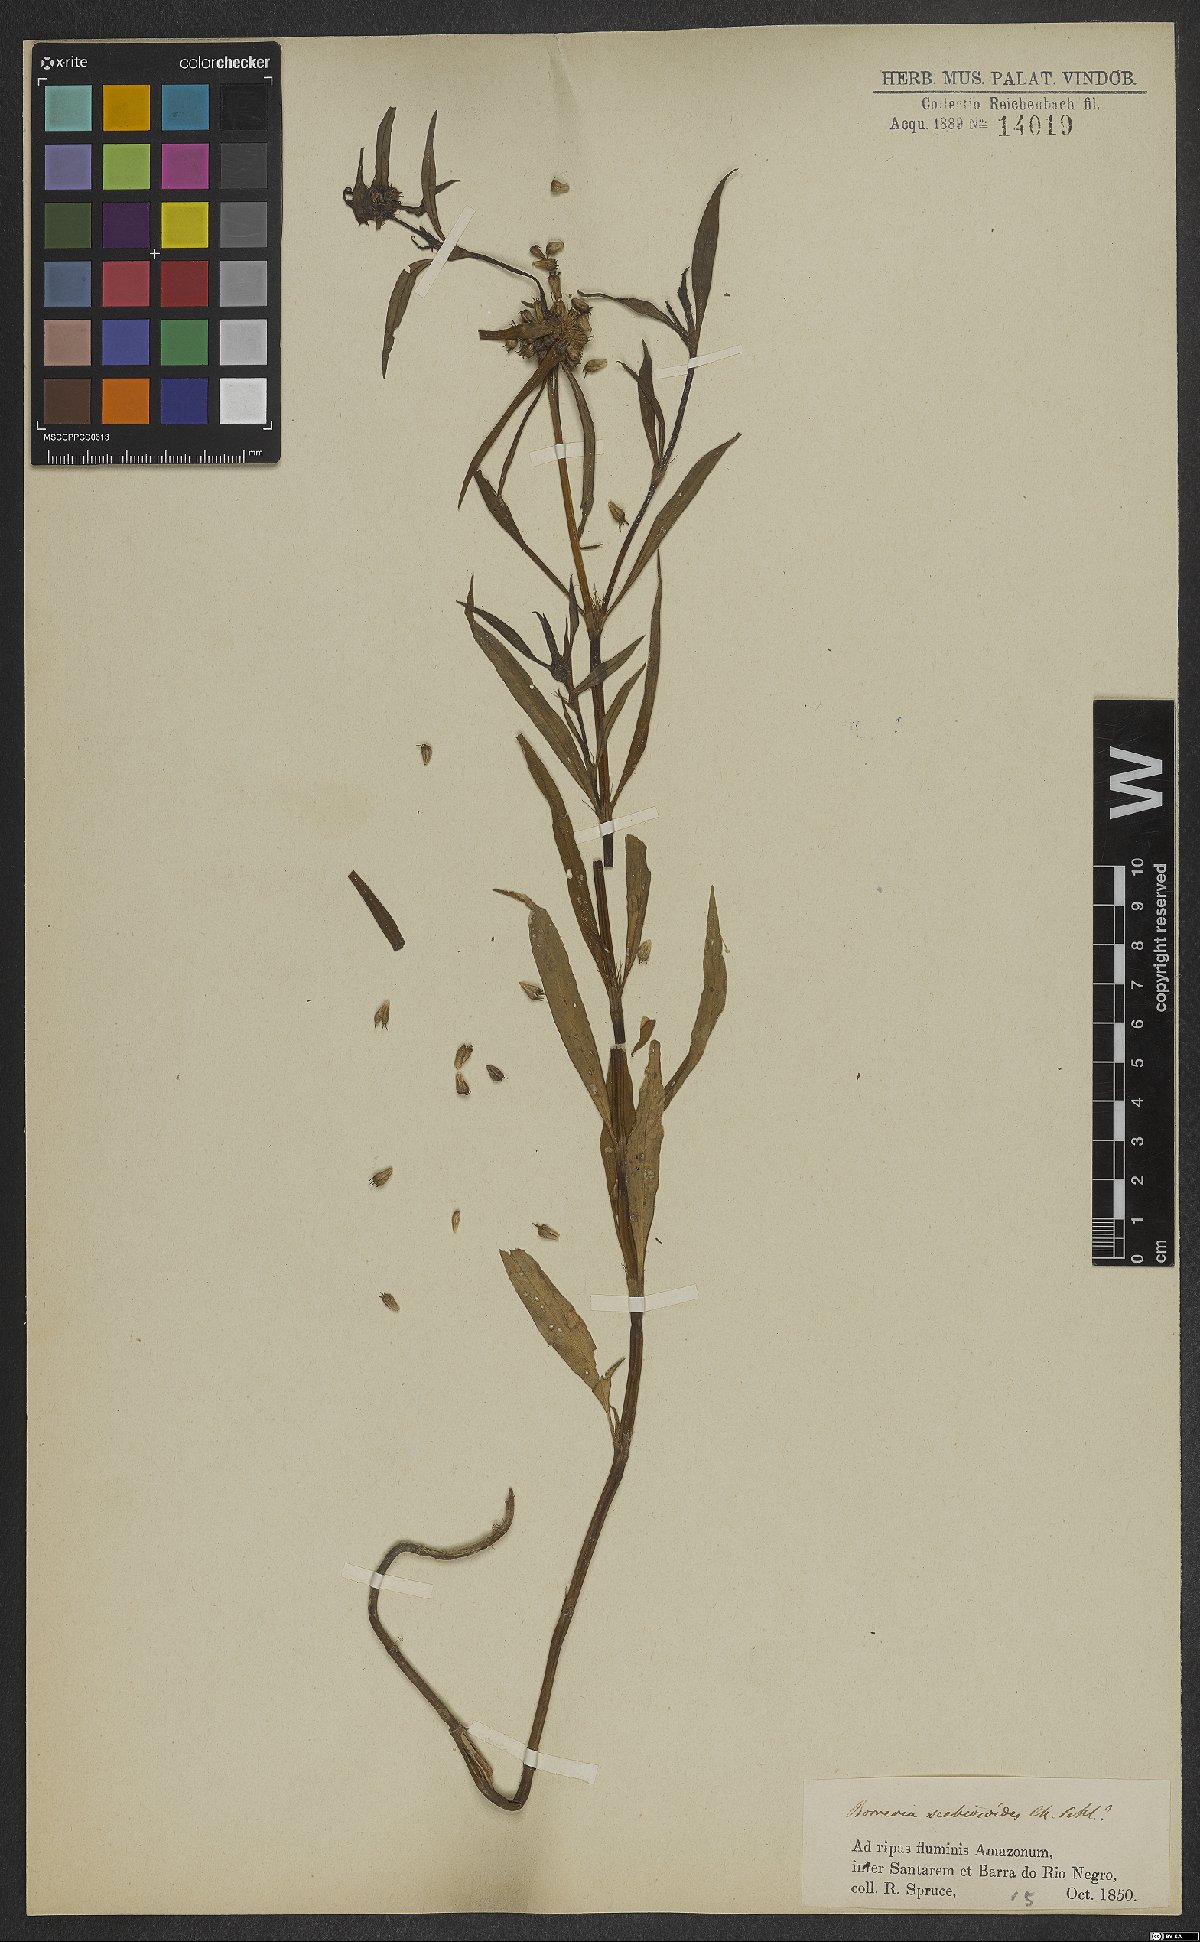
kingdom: Plantae
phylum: Tracheophyta
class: Magnoliopsida
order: Gentianales
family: Rubiaceae
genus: Spermacoce
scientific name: Spermacoce scabiosoides
